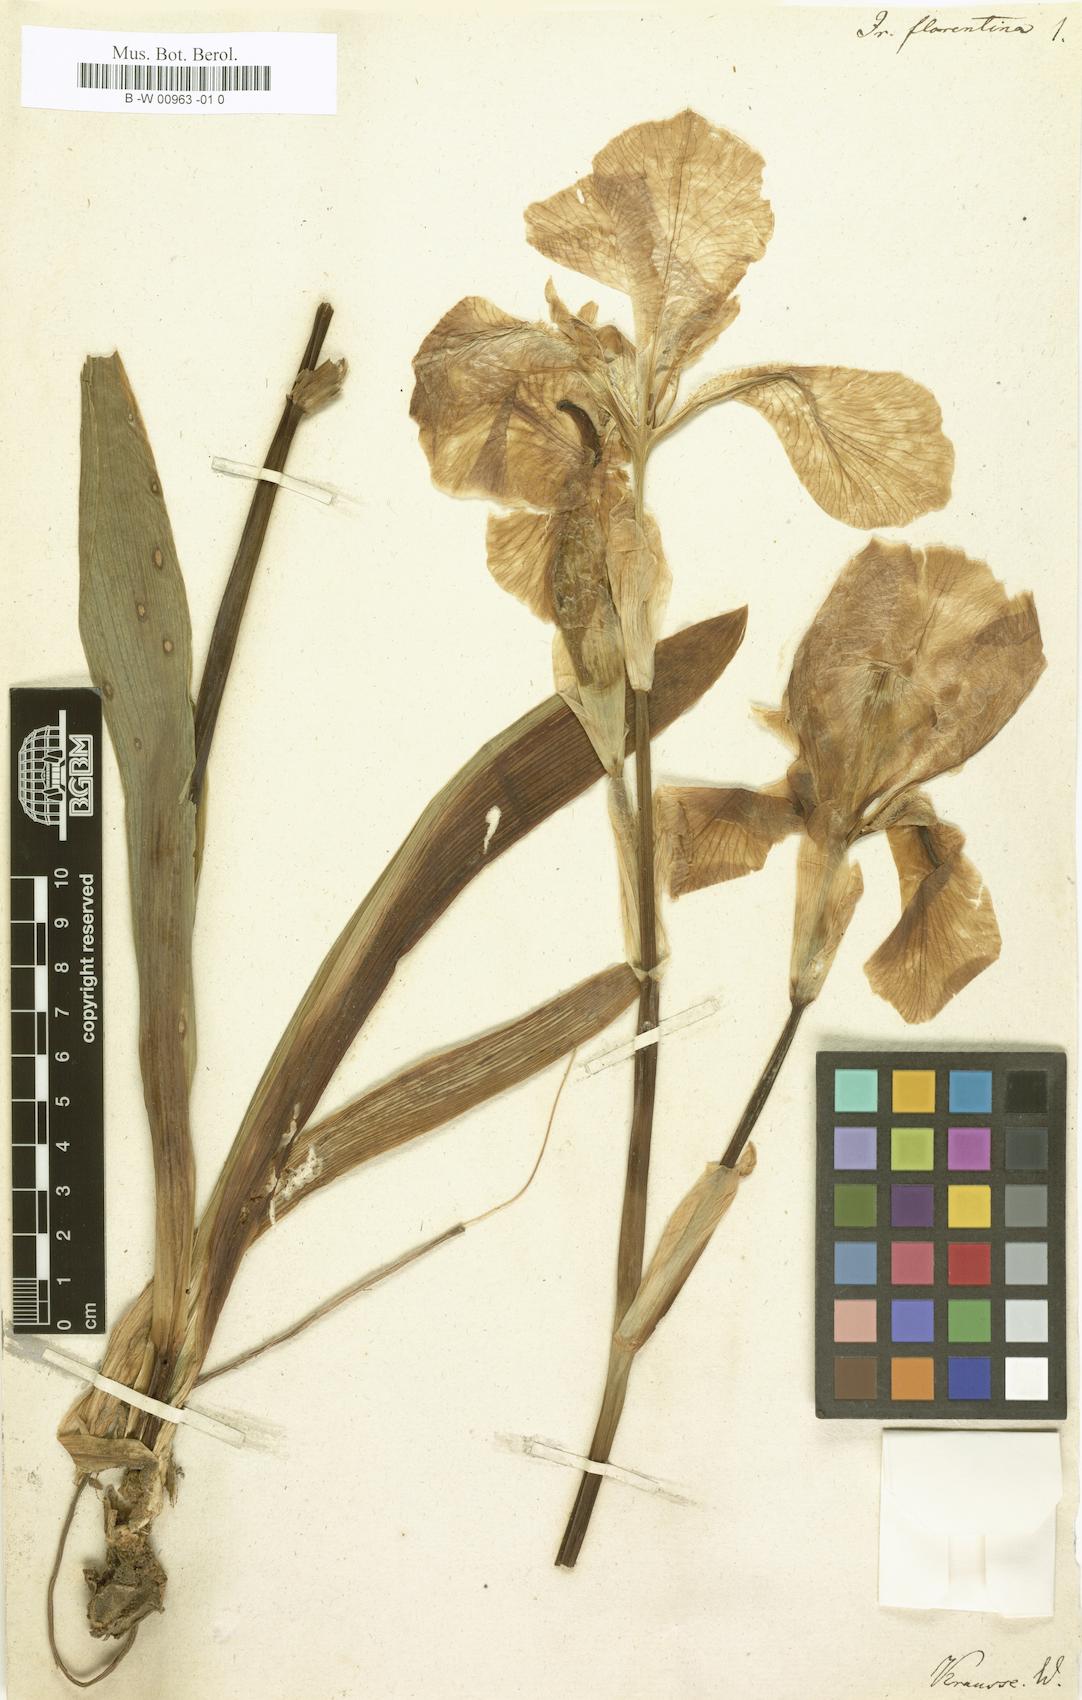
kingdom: Plantae
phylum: Tracheophyta
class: Liliopsida
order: Asparagales
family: Iridaceae
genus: Iris
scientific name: Iris florentina
